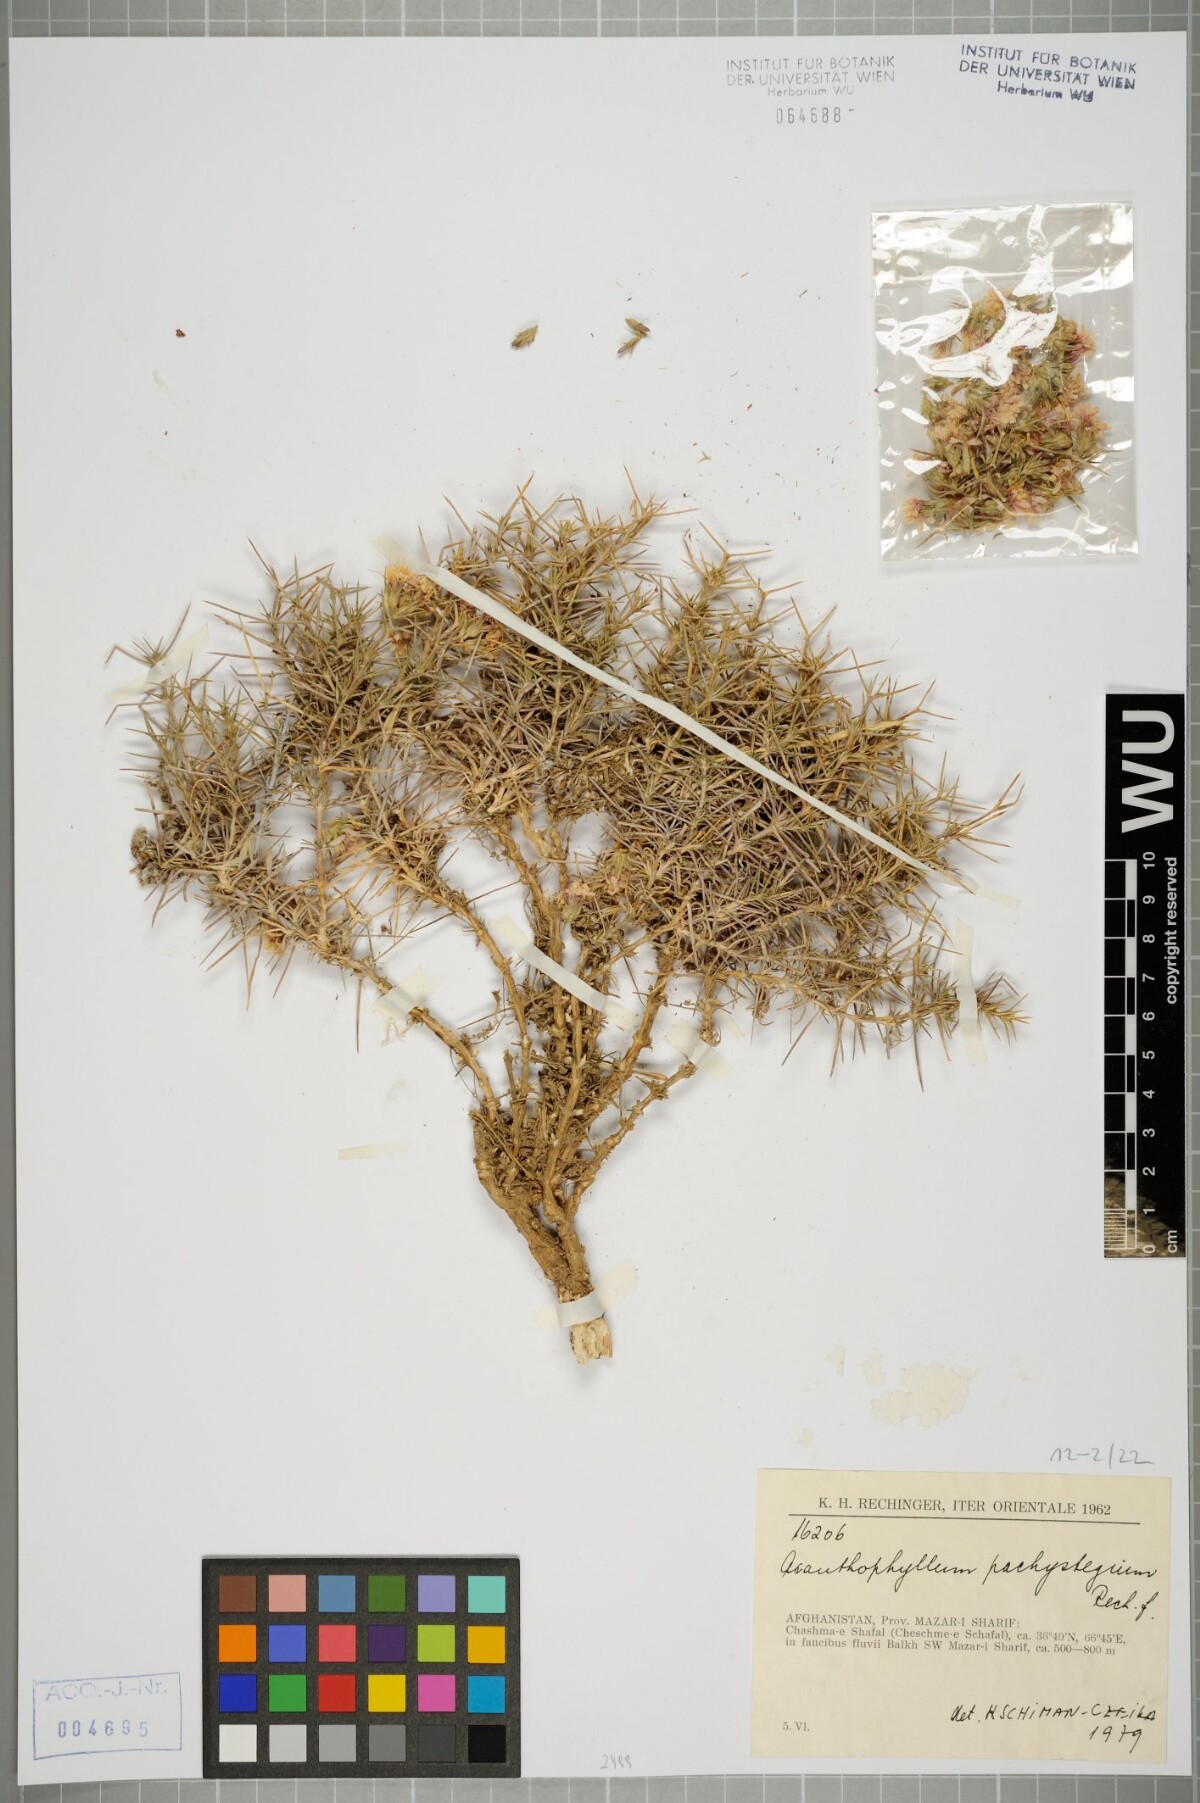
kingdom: Plantae
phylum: Tracheophyta
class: Magnoliopsida
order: Caryophyllales
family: Caryophyllaceae
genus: Acanthophyllum
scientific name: Acanthophyllum pachystegium
